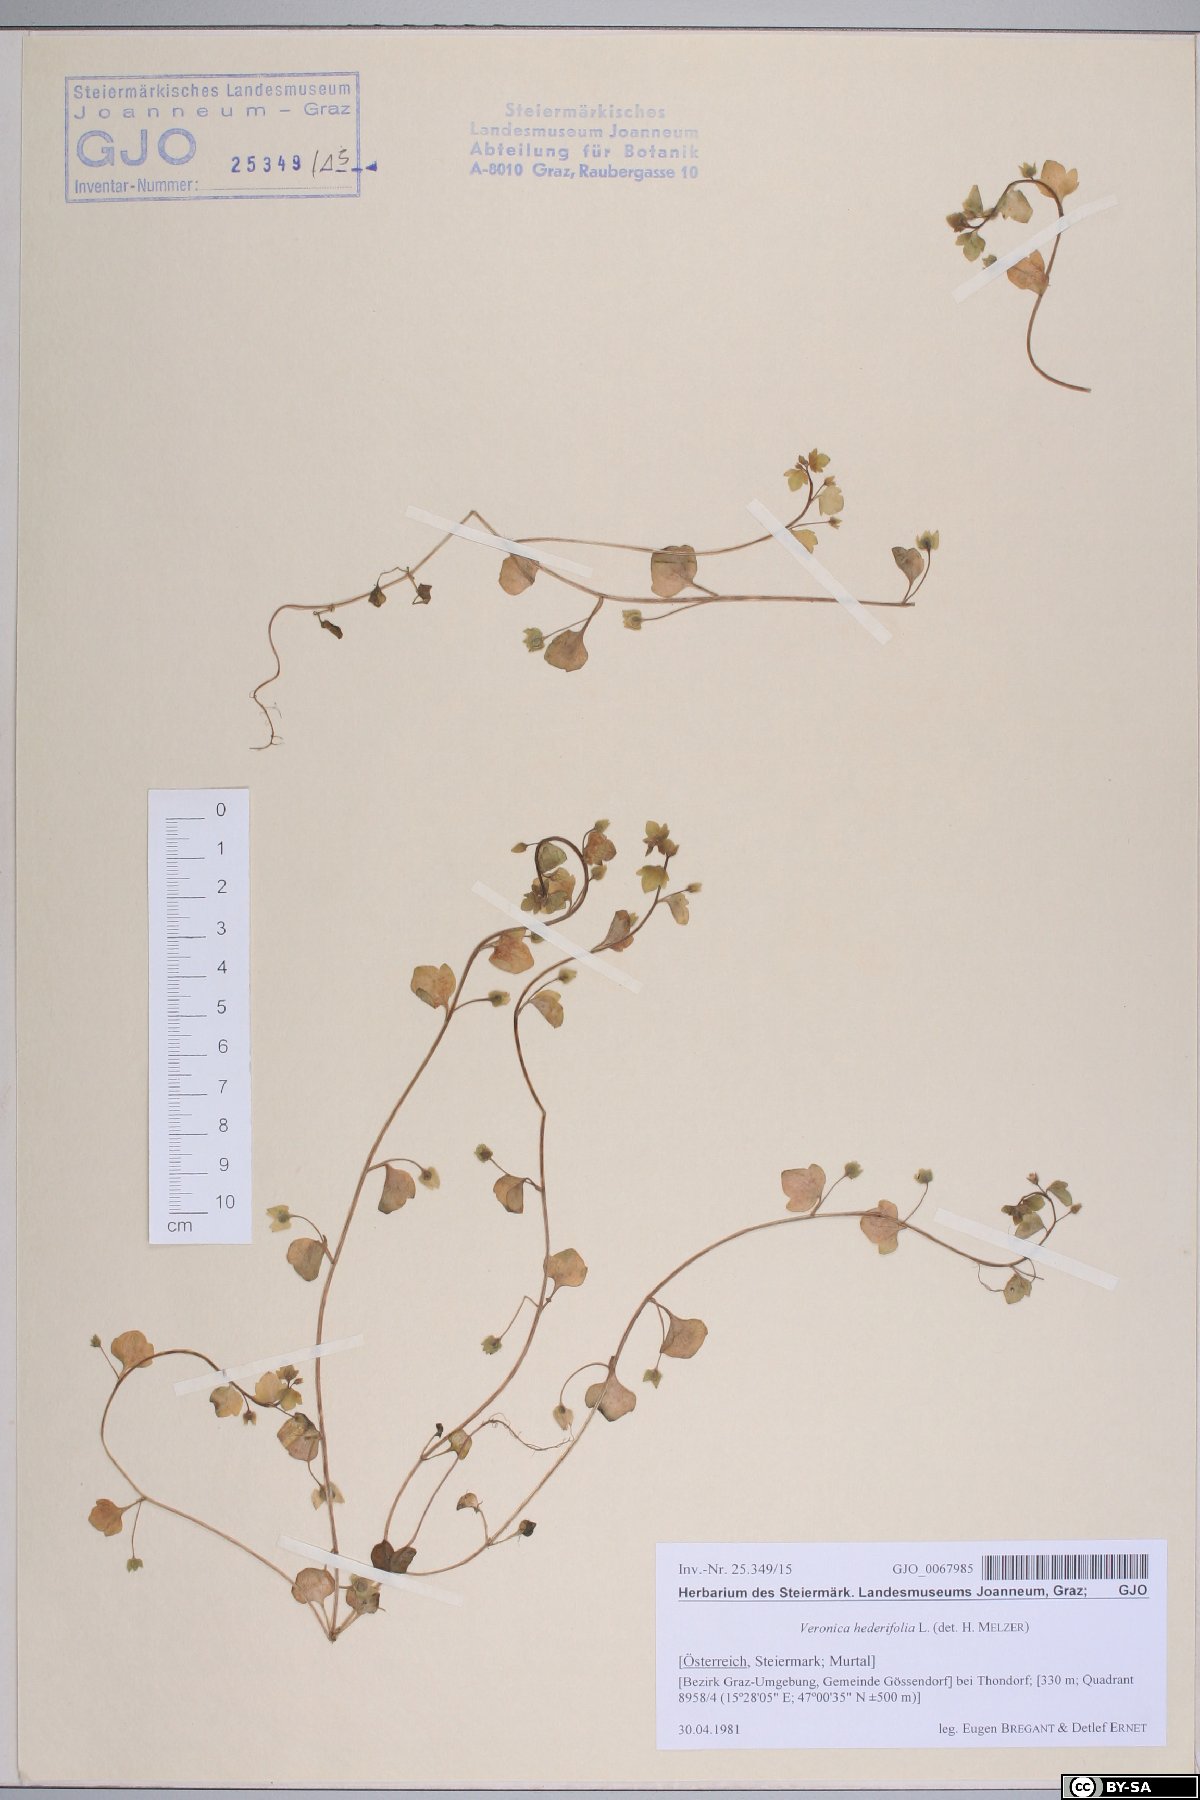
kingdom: Plantae
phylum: Tracheophyta
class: Magnoliopsida
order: Lamiales
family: Plantaginaceae
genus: Veronica
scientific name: Veronica hederifolia
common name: Ivy-leaved speedwell
